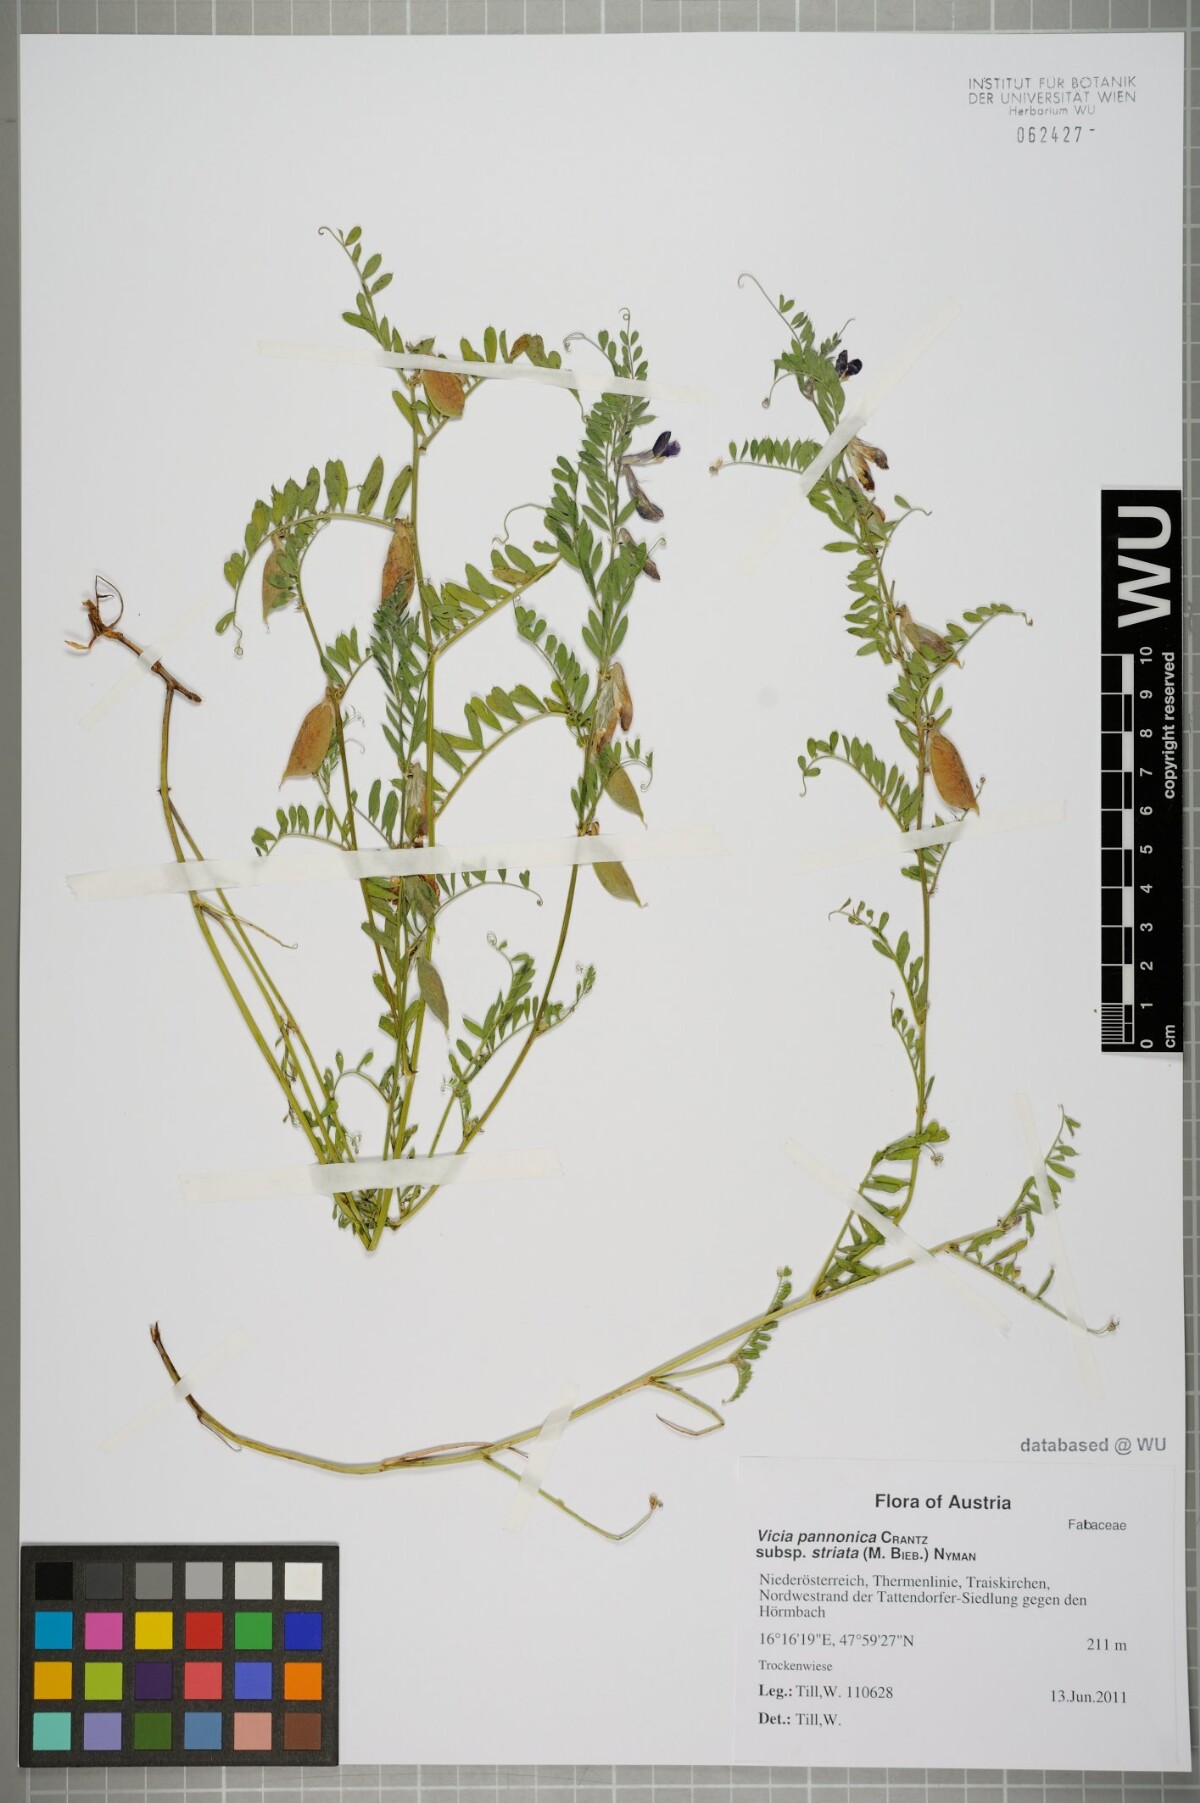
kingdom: Plantae
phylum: Tracheophyta
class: Magnoliopsida
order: Fabales
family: Fabaceae
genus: Vicia
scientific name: Vicia pannonica
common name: Hungarian vetch
